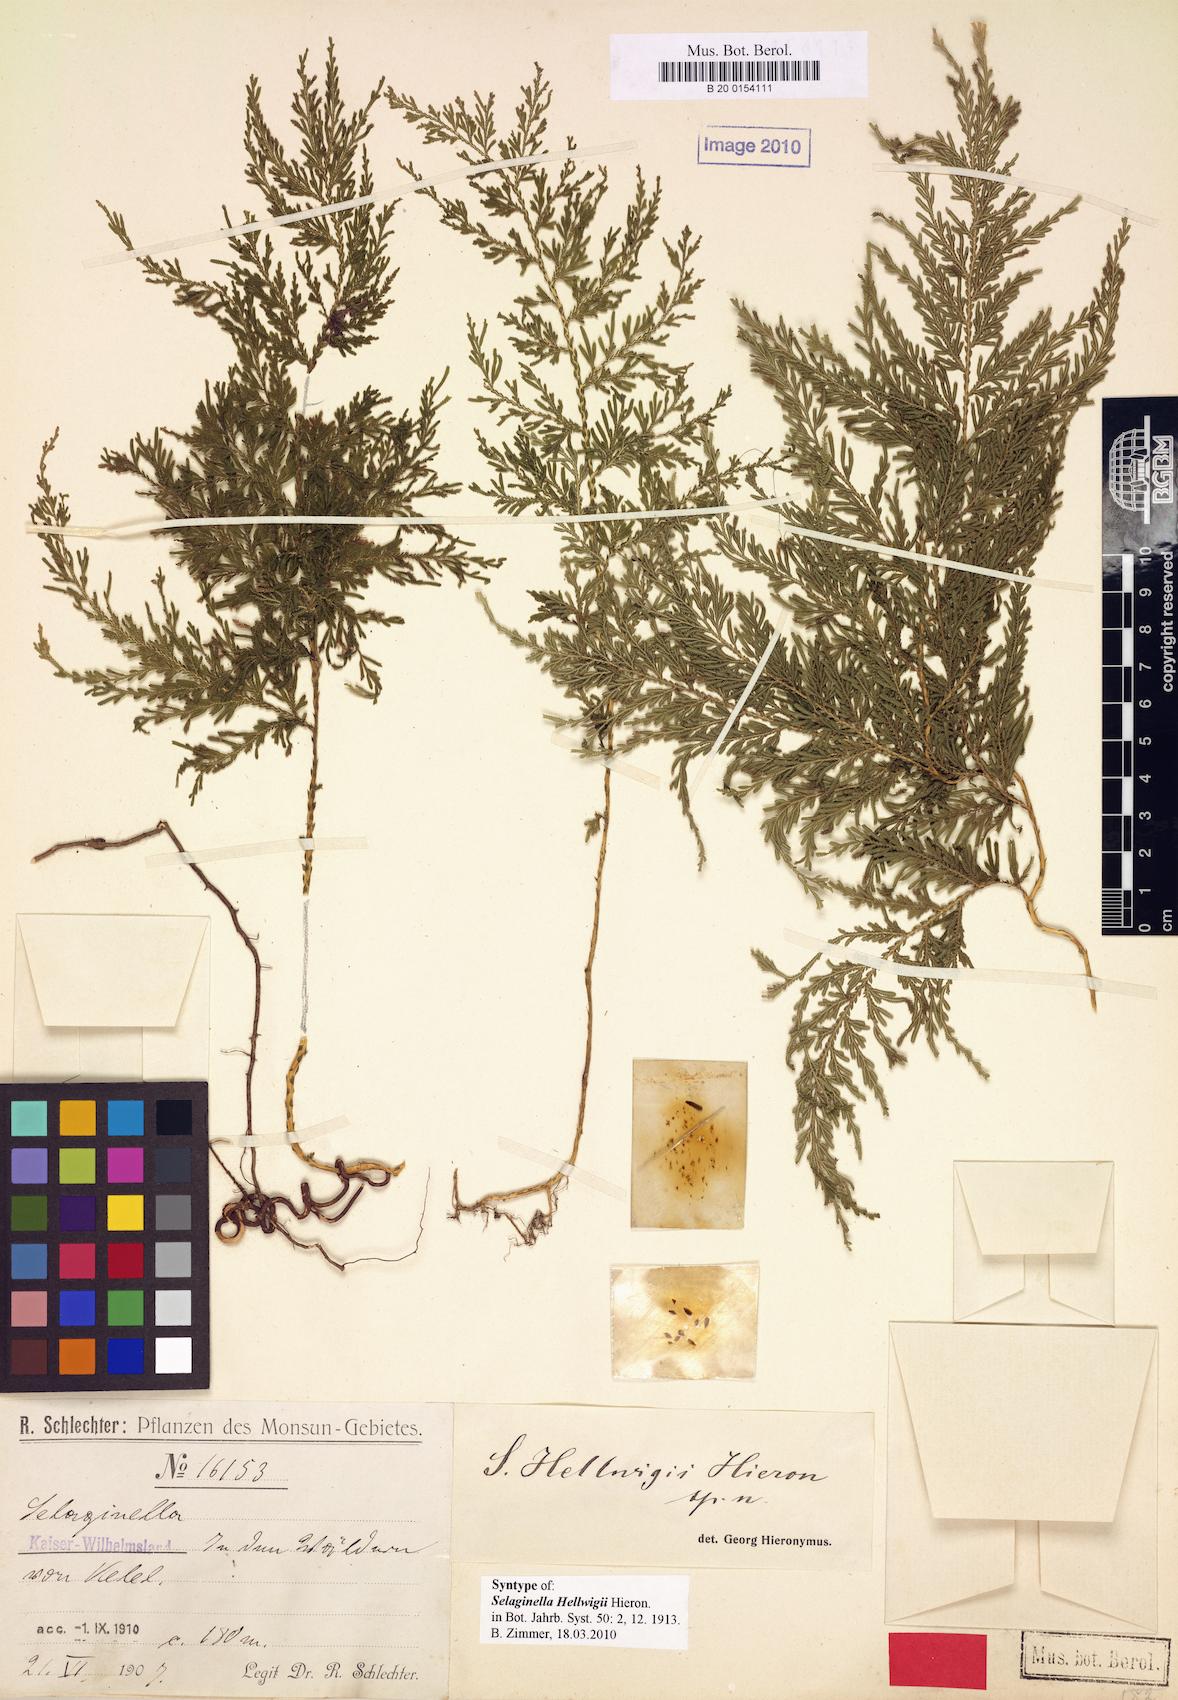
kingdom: Plantae
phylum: Tracheophyta
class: Lycopodiopsida
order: Selaginellales
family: Selaginellaceae
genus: Selaginella
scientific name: Selaginella hellwigii
